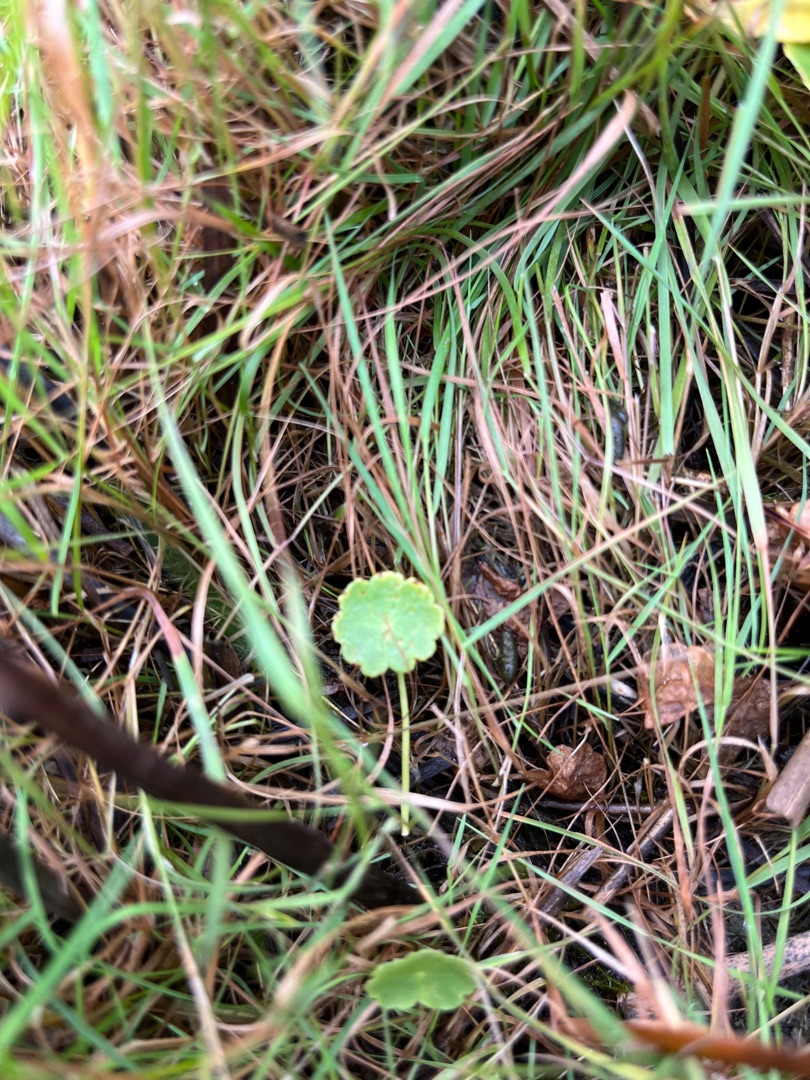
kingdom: Plantae
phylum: Tracheophyta
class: Magnoliopsida
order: Apiales
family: Araliaceae
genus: Hydrocotyle
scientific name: Hydrocotyle vulgaris
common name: Vandnavle
